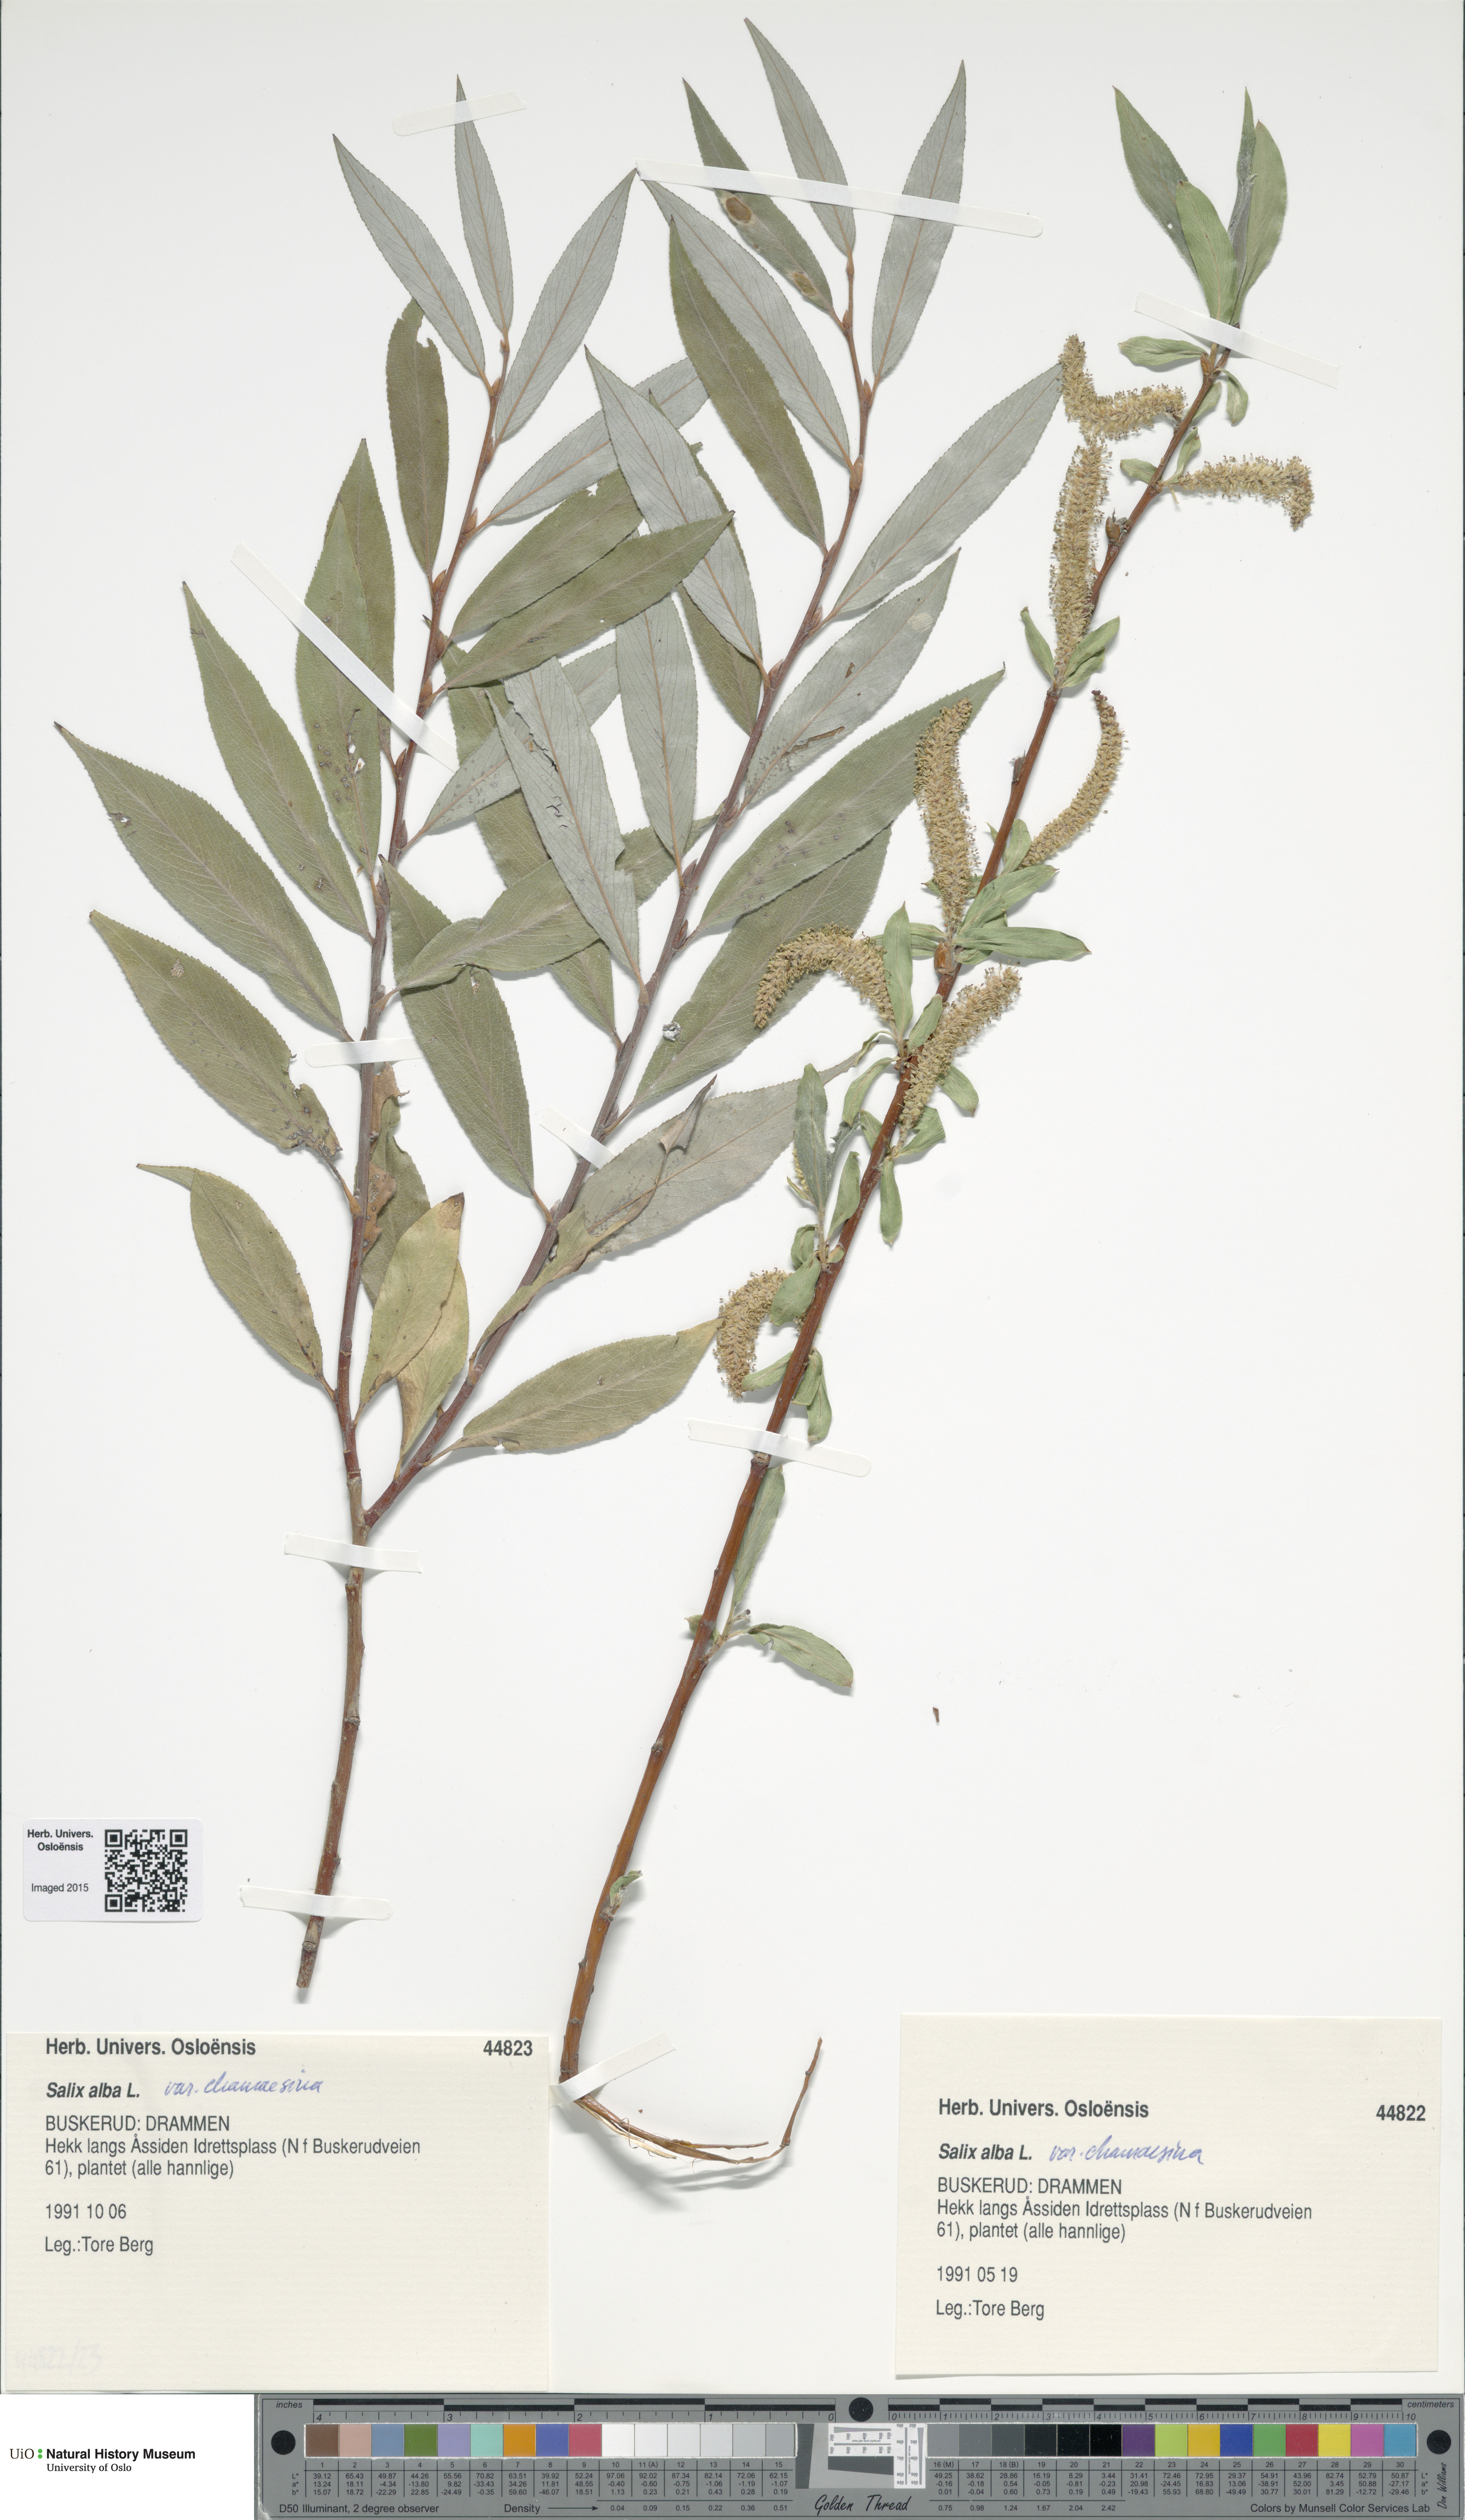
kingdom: Plantae
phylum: Tracheophyta
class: Magnoliopsida
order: Malpighiales
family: Salicaceae
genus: Salix
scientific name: Salix alba
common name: White willow
